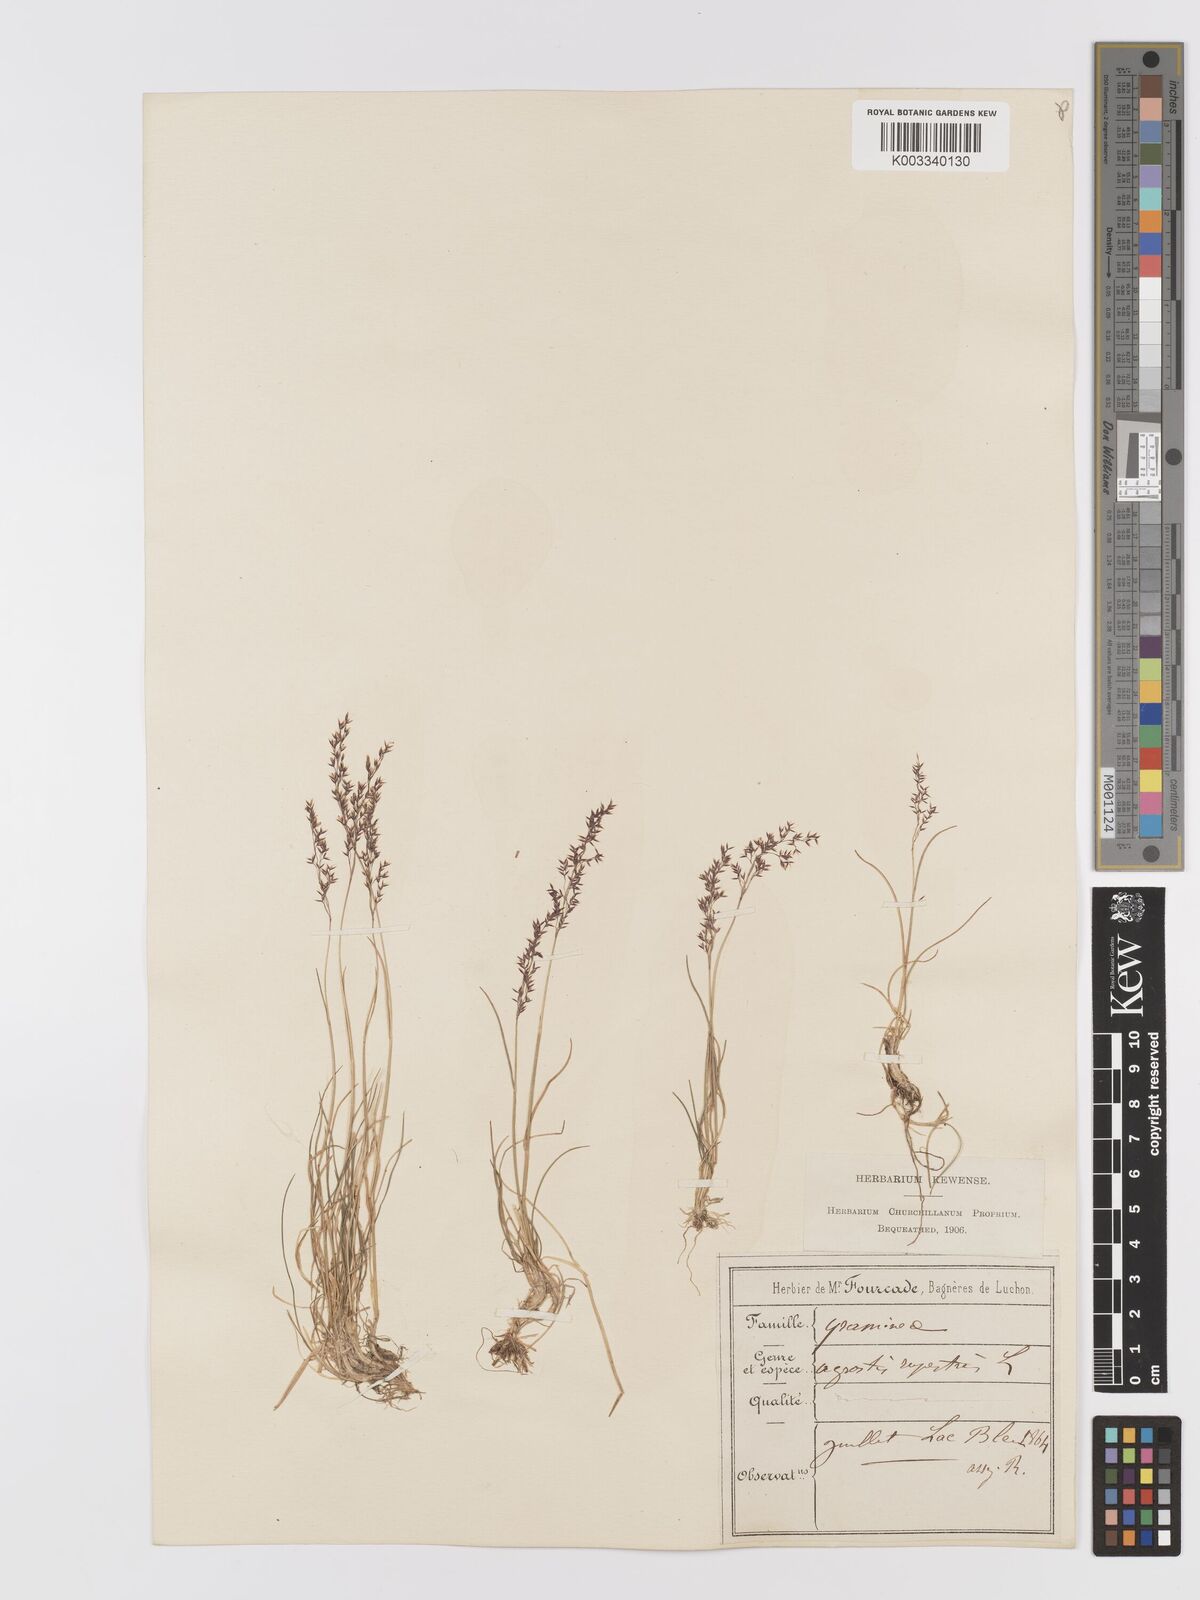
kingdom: Plantae
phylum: Tracheophyta
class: Liliopsida
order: Poales
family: Poaceae
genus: Agrostis
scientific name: Agrostis rupestris
